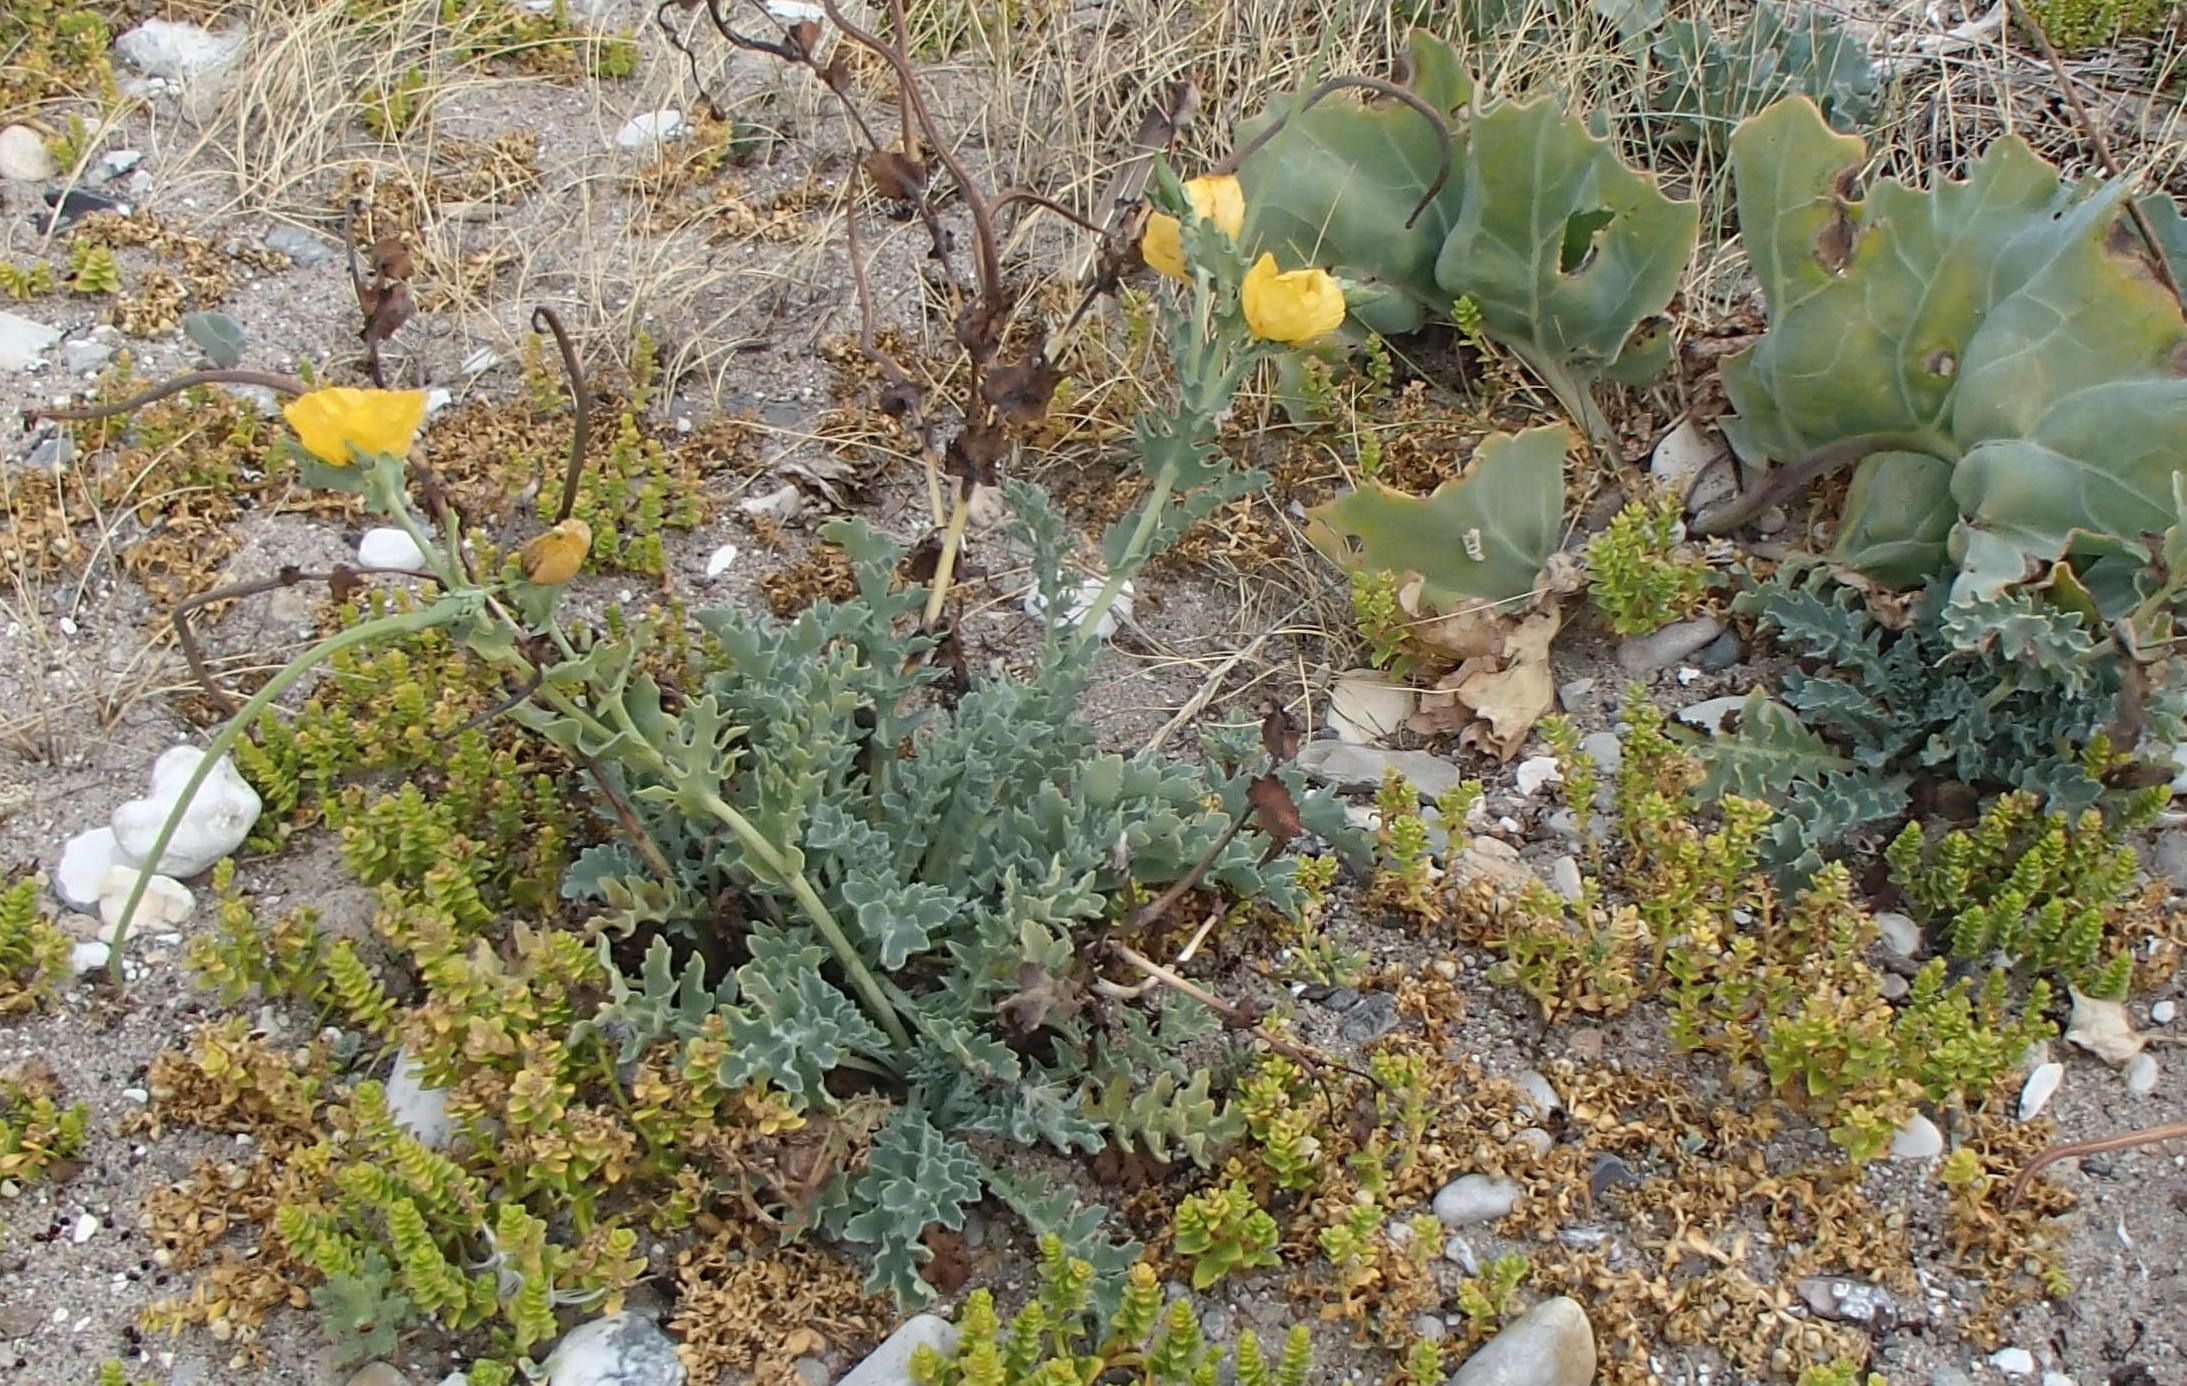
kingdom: Plantae
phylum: Tracheophyta
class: Magnoliopsida
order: Ranunculales
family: Papaveraceae
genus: Glaucium
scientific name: Glaucium flavum
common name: Hornskulpe
